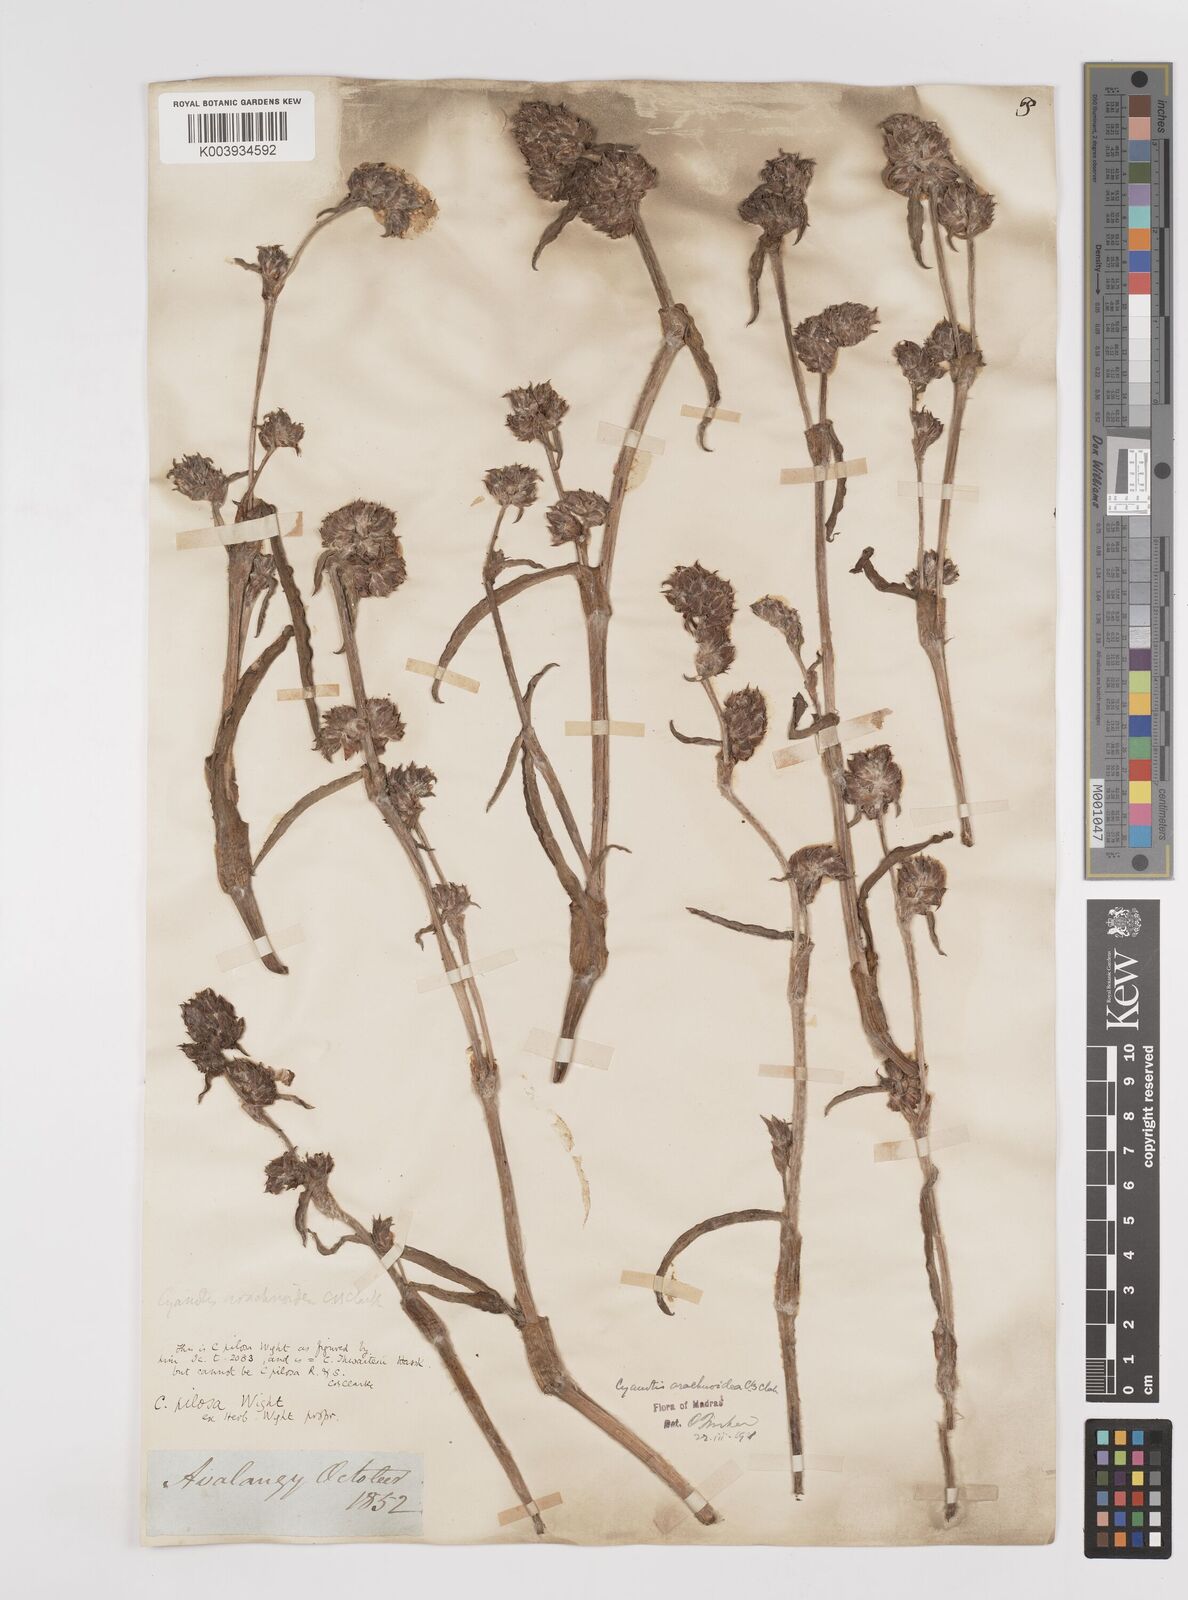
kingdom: Plantae
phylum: Tracheophyta
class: Liliopsida
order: Commelinales
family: Commelinaceae
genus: Cyanotis
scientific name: Cyanotis arachnoidea
